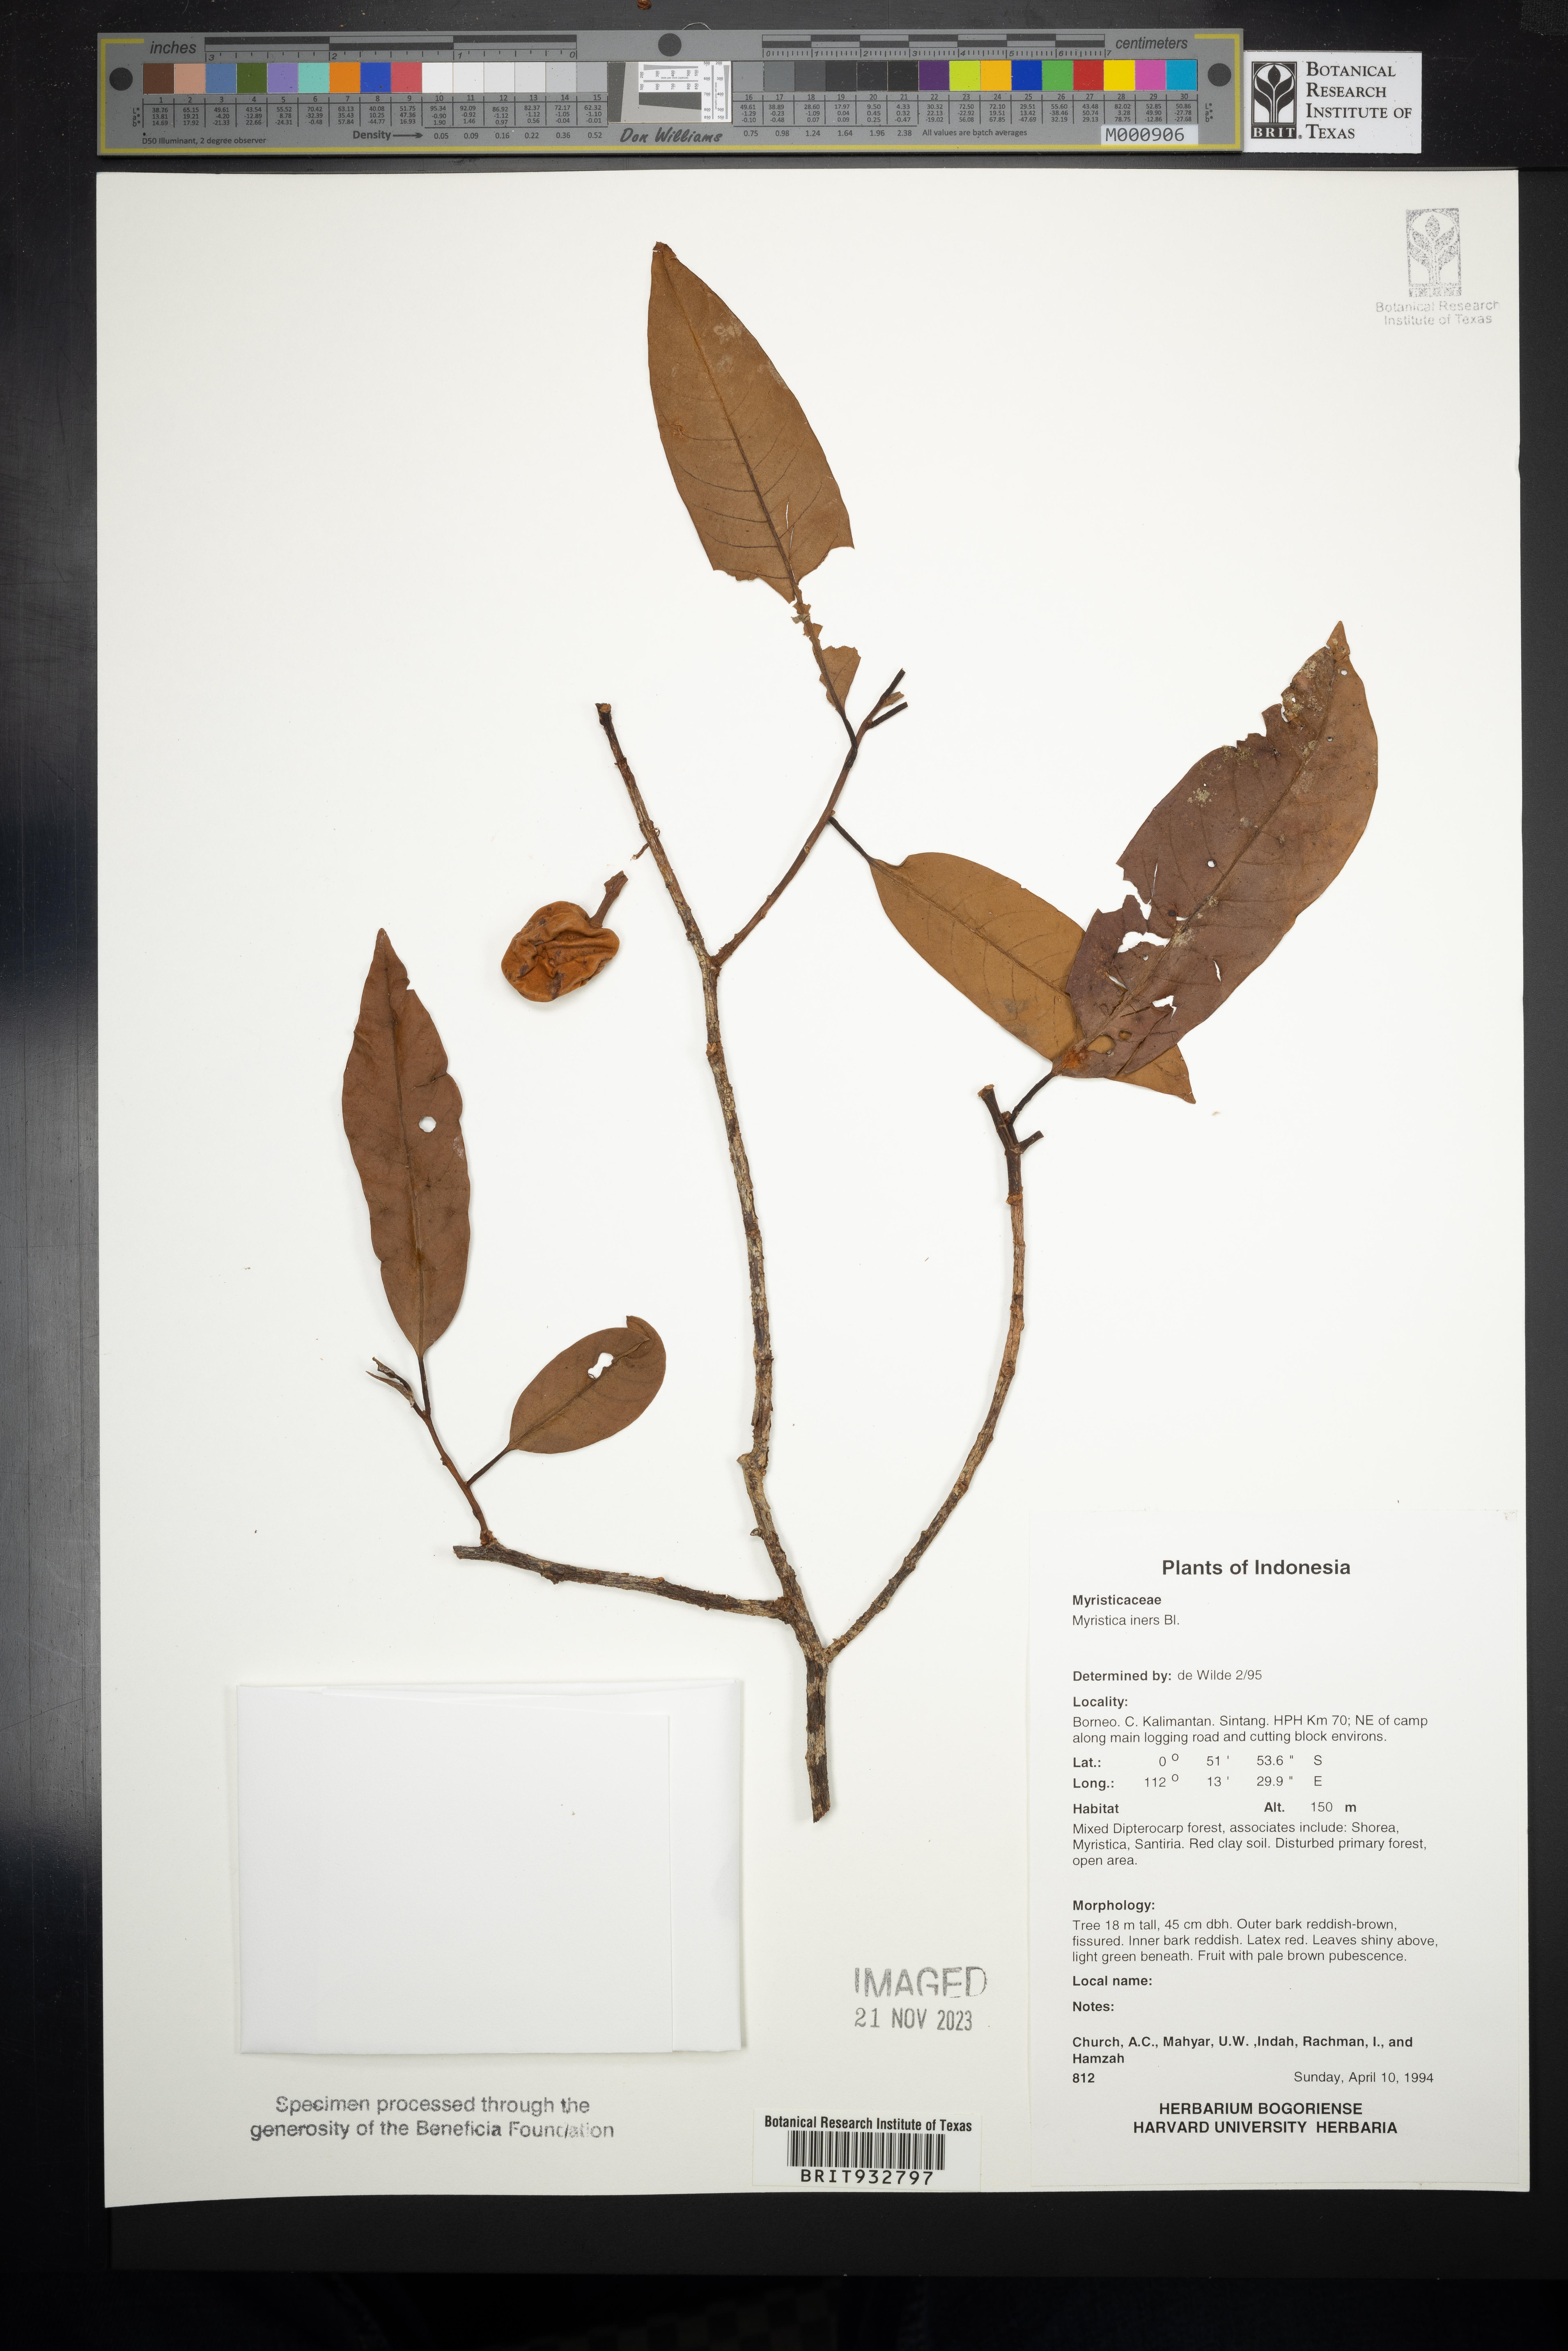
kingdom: Plantae
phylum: Tracheophyta
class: Magnoliopsida
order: Magnoliales
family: Myristicaceae
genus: Myristica
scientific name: Myristica
